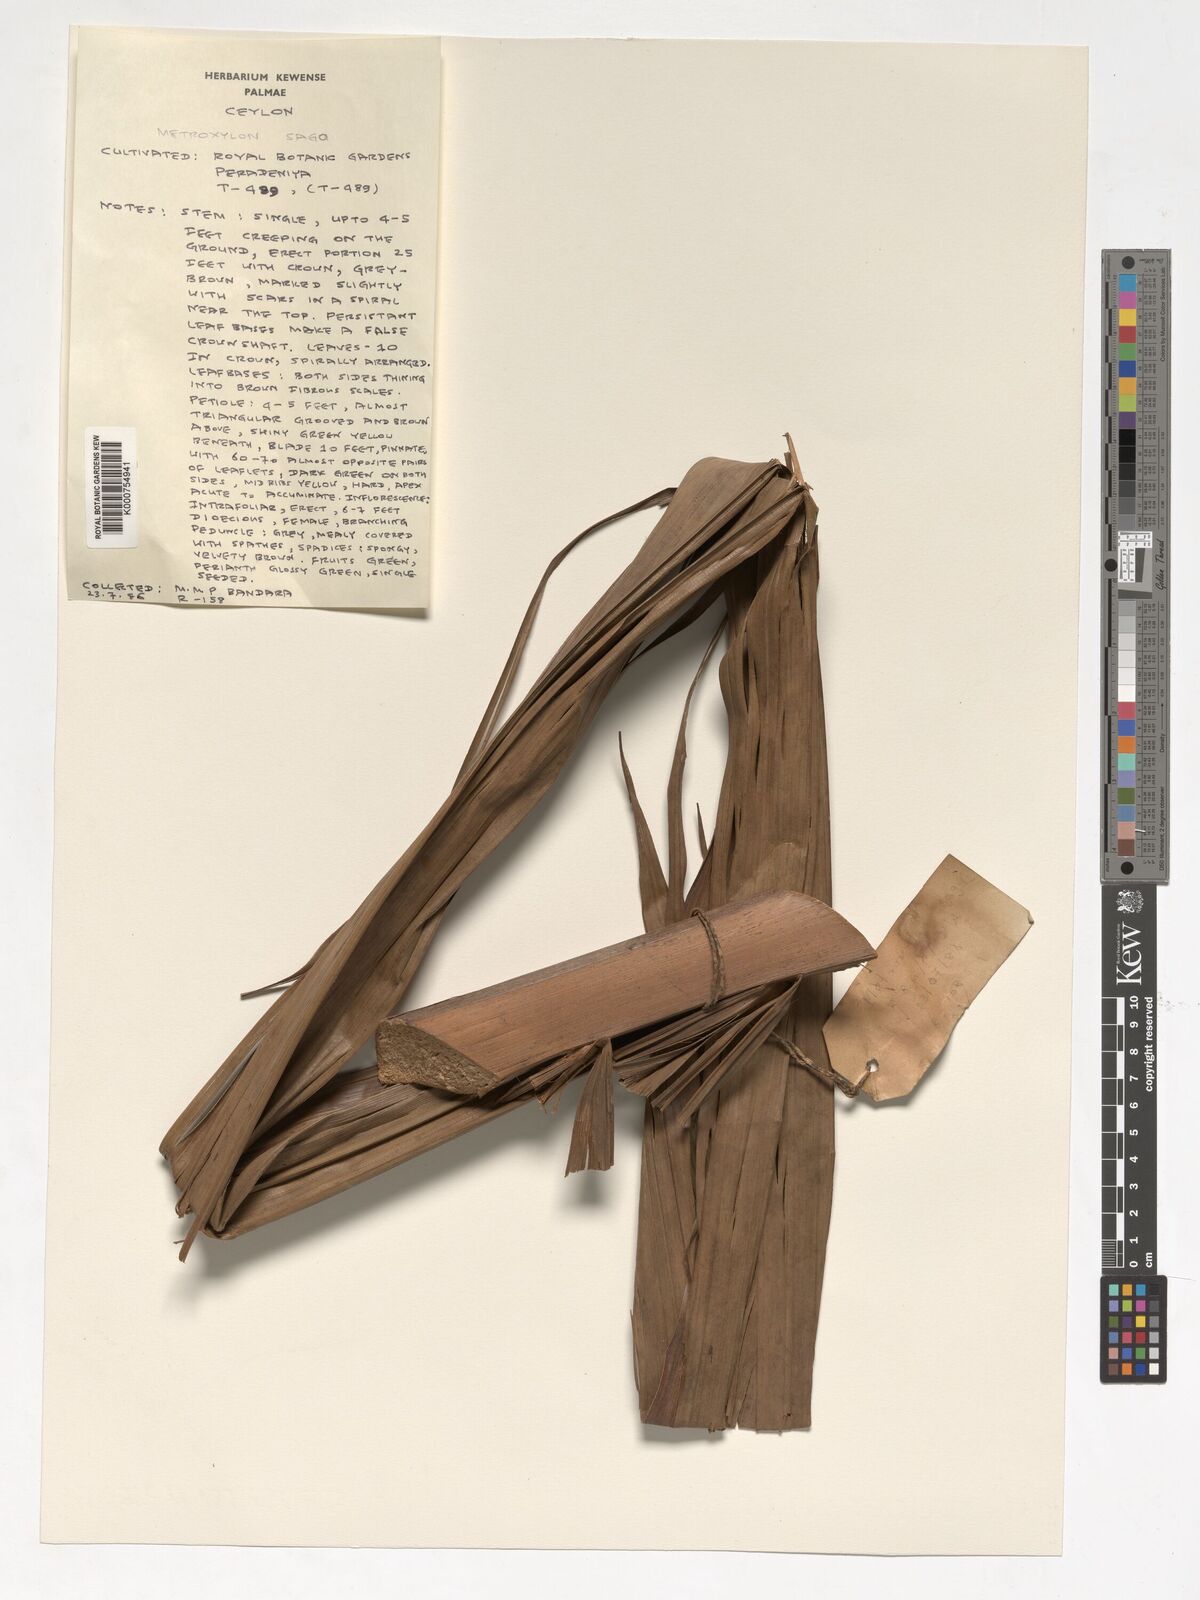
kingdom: Plantae
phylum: Tracheophyta
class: Liliopsida
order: Arecales
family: Arecaceae
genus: Metroxylon
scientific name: Metroxylon sagu
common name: Sago palm
